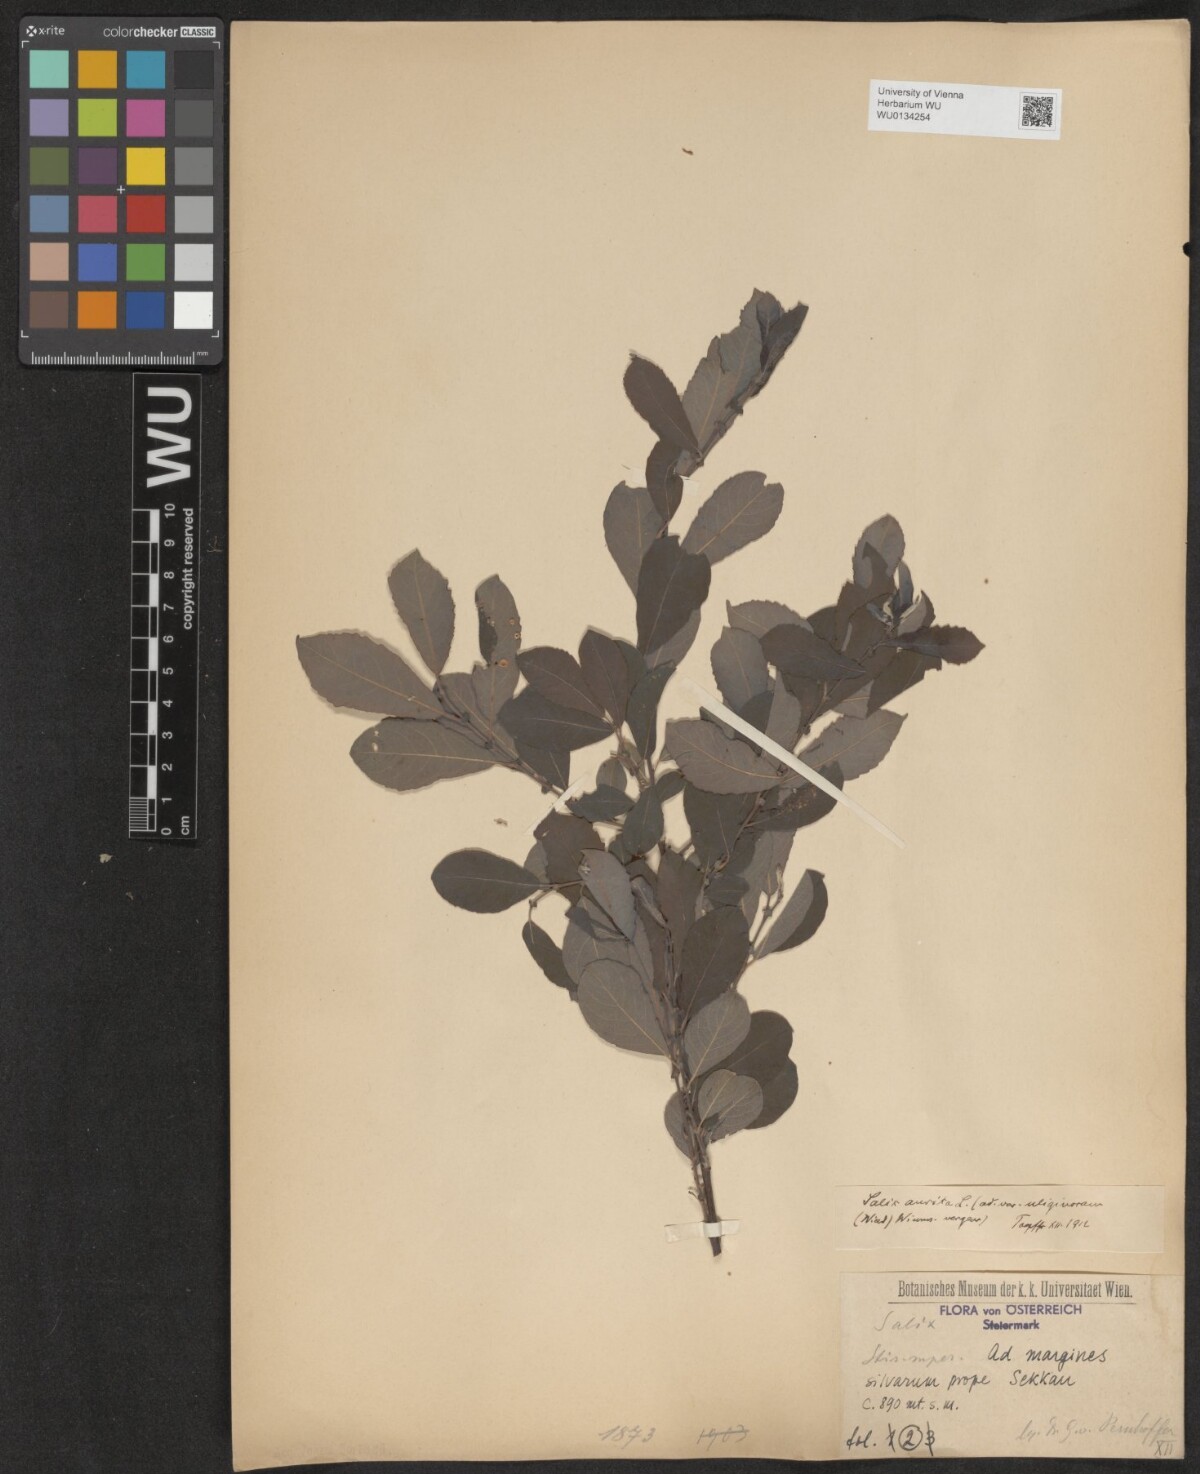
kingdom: Plantae
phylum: Tracheophyta
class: Magnoliopsida
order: Malpighiales
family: Salicaceae
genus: Salix
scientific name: Salix aurita
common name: Eared willow
